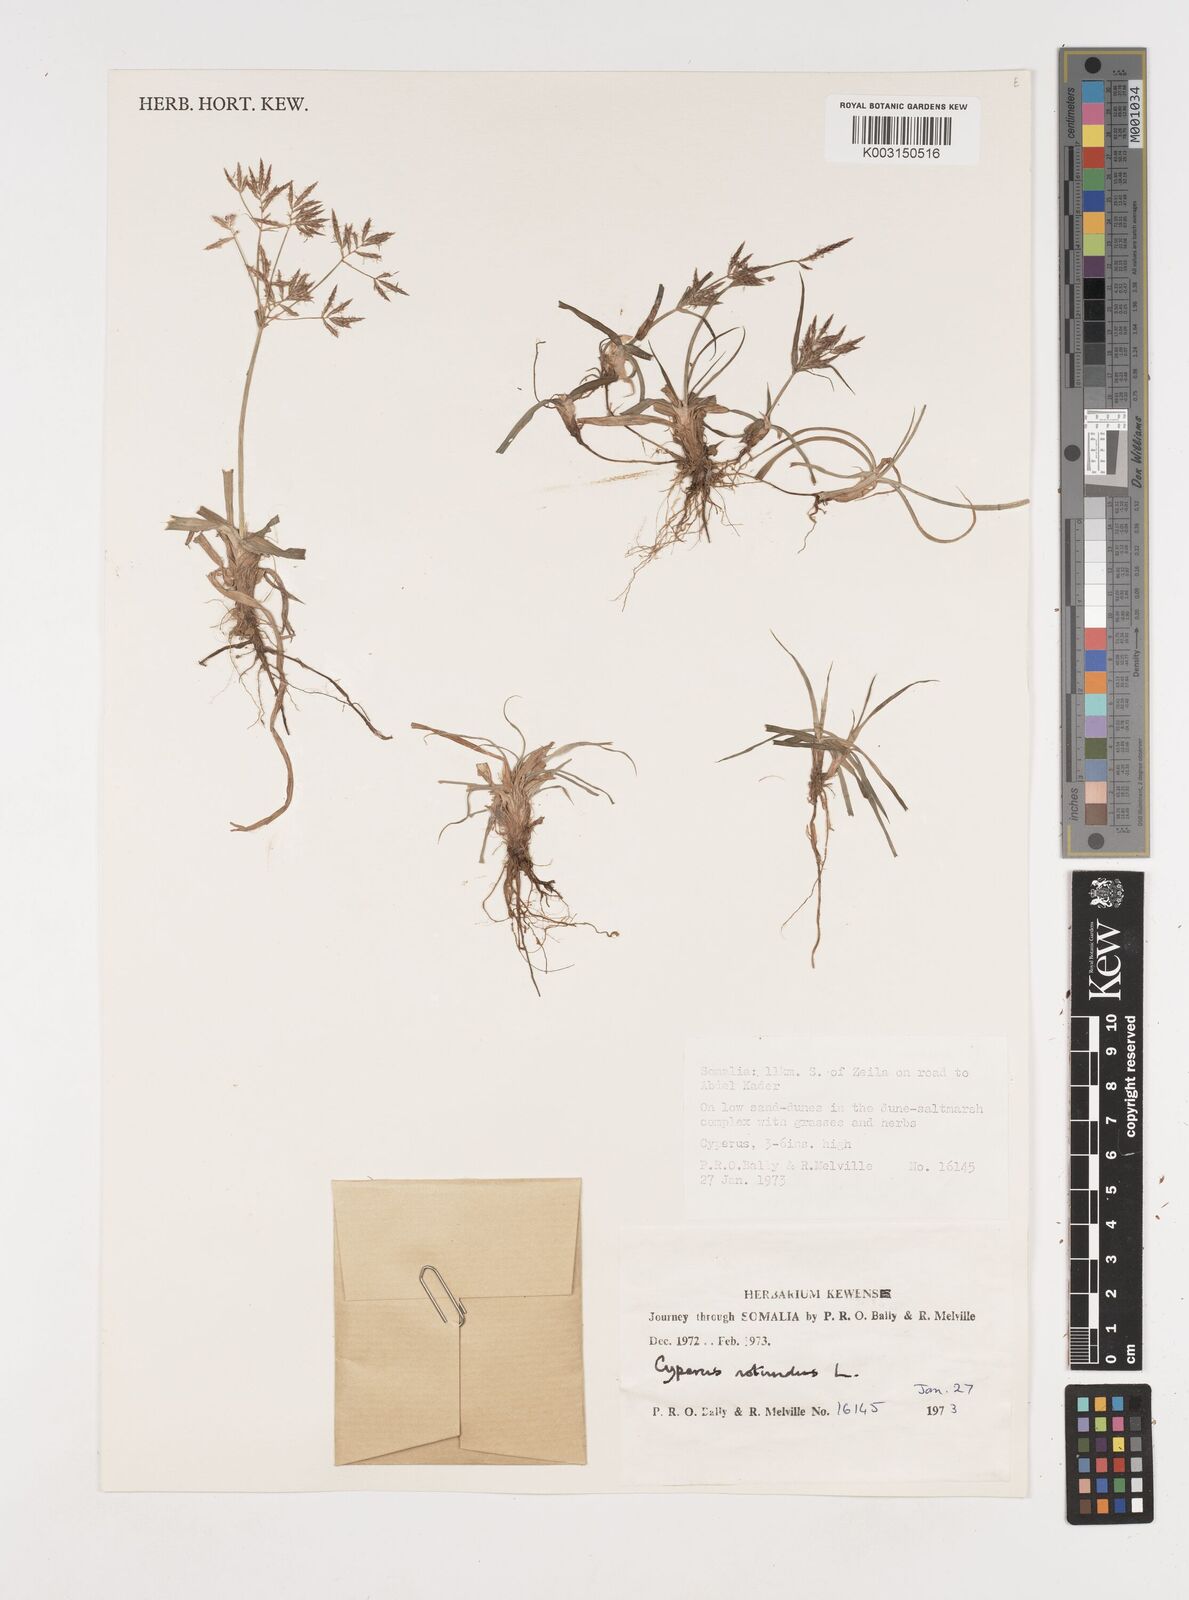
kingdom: Plantae
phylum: Tracheophyta
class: Liliopsida
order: Poales
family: Cyperaceae
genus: Cyperus
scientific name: Cyperus rotundus
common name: Nutgrass
